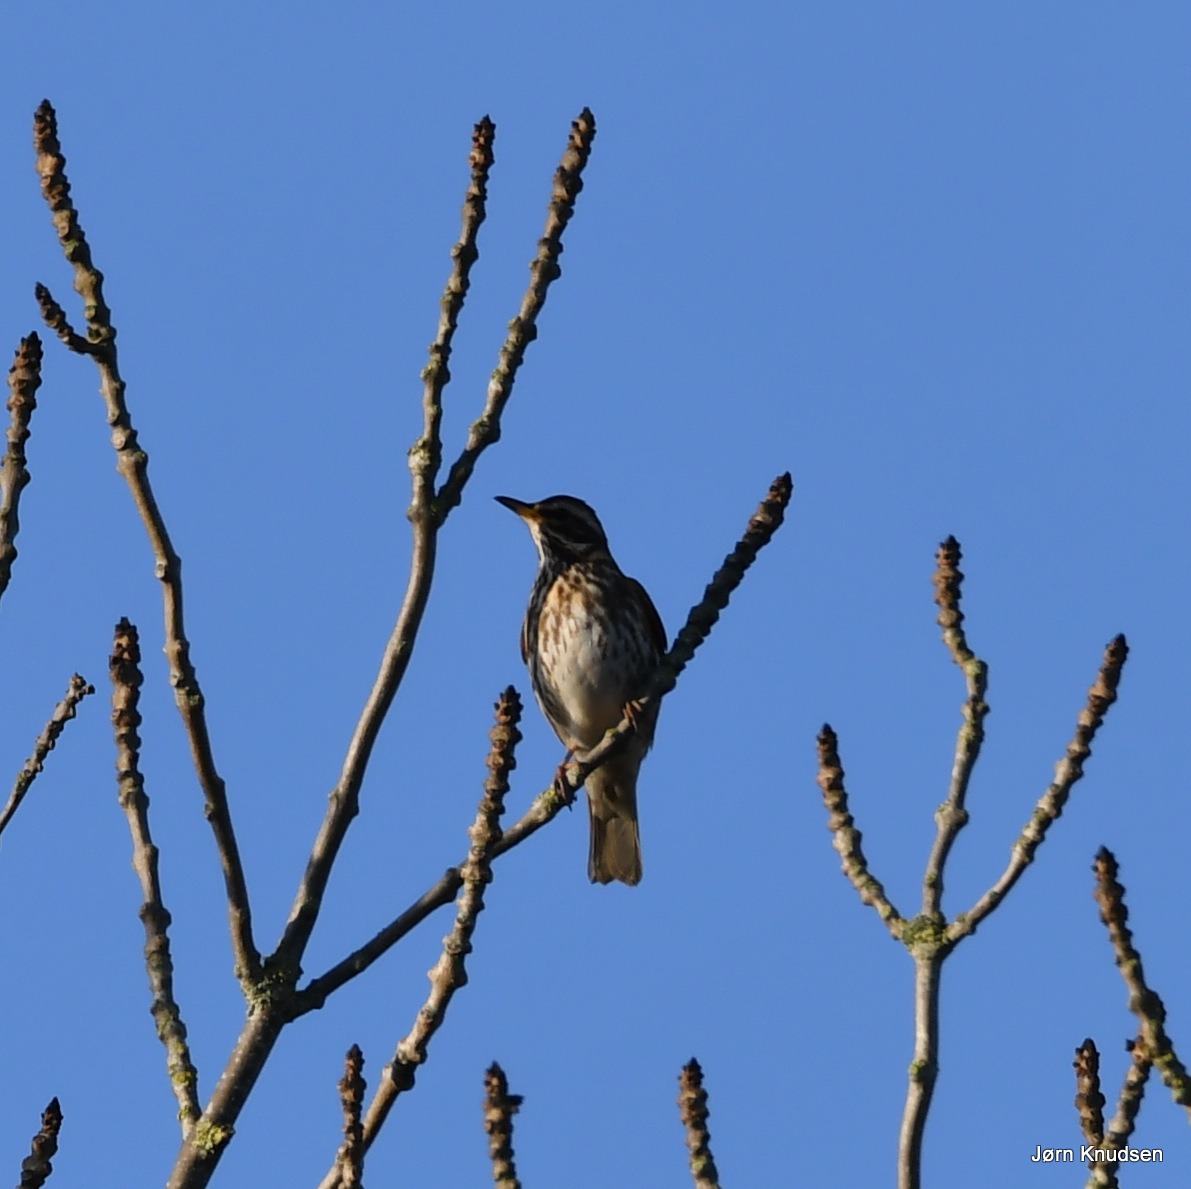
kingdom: Animalia
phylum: Chordata
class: Aves
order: Passeriformes
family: Turdidae
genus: Turdus
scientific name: Turdus iliacus
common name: Vindrossel
